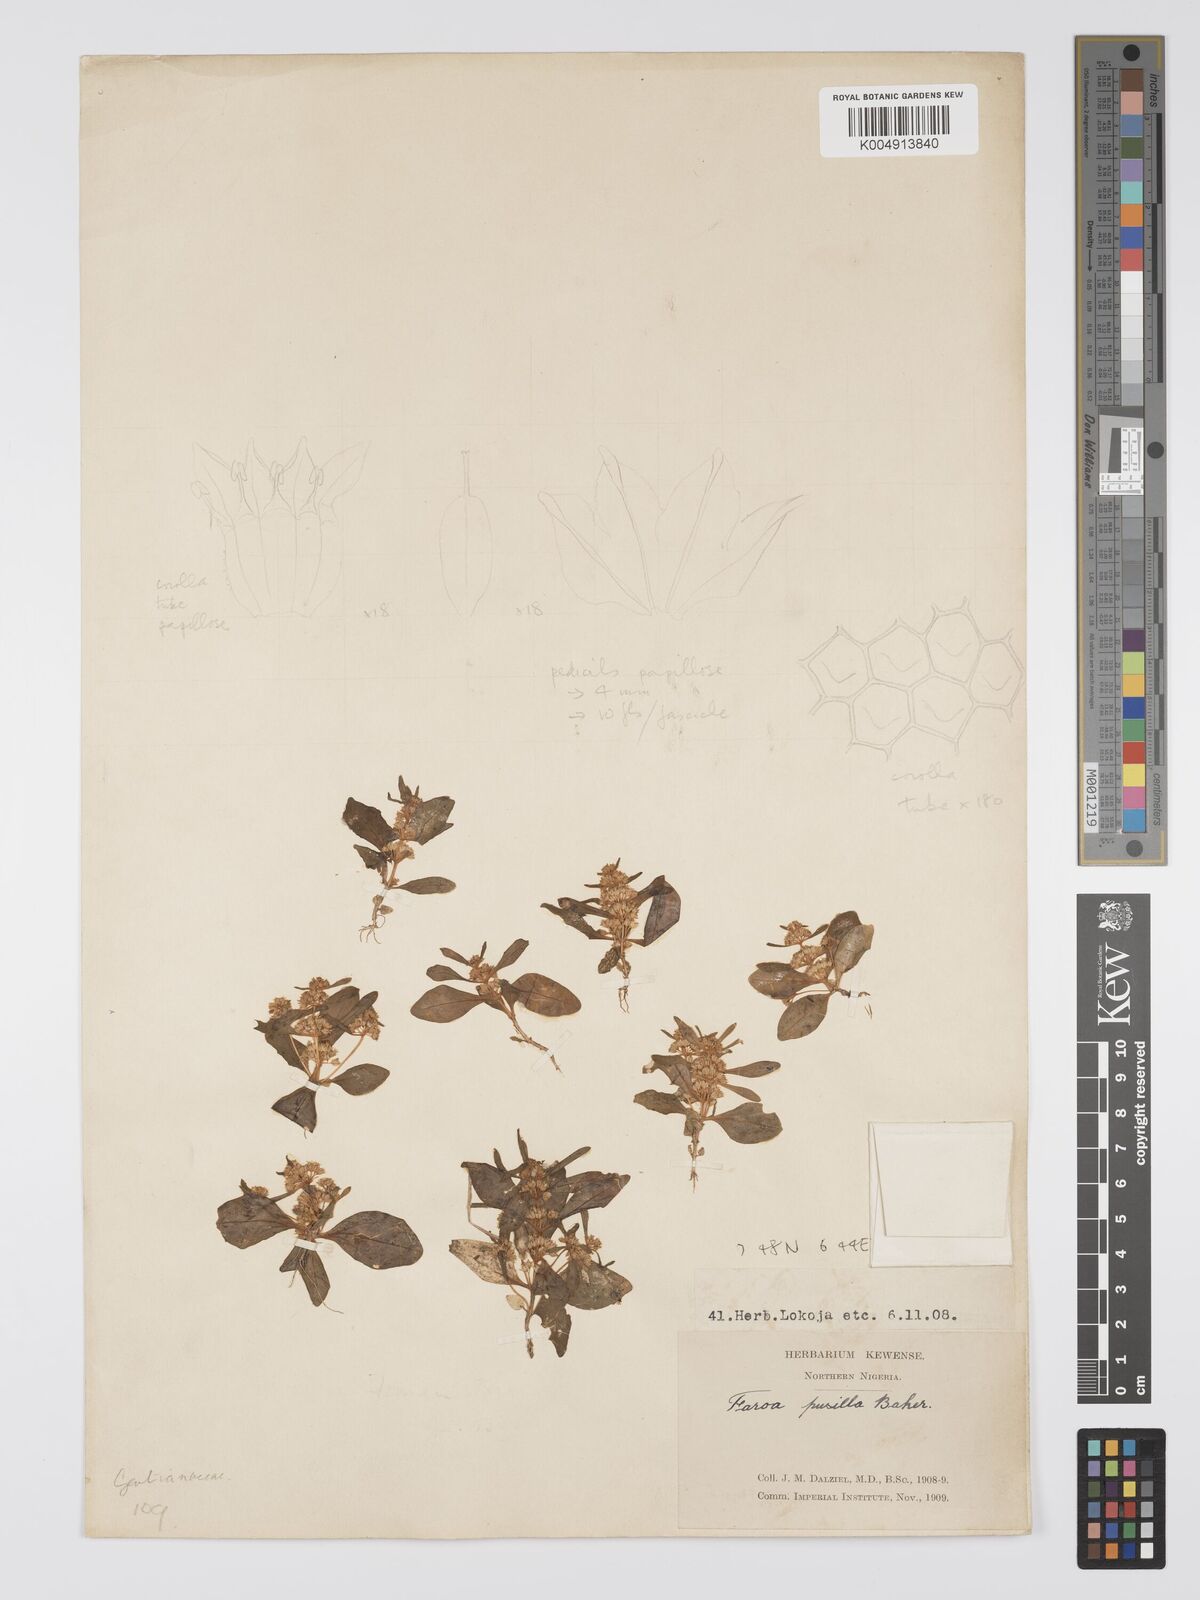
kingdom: Plantae
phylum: Tracheophyta
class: Magnoliopsida
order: Gentianales
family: Gentianaceae
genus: Faroa
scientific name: Faroa pusilla
